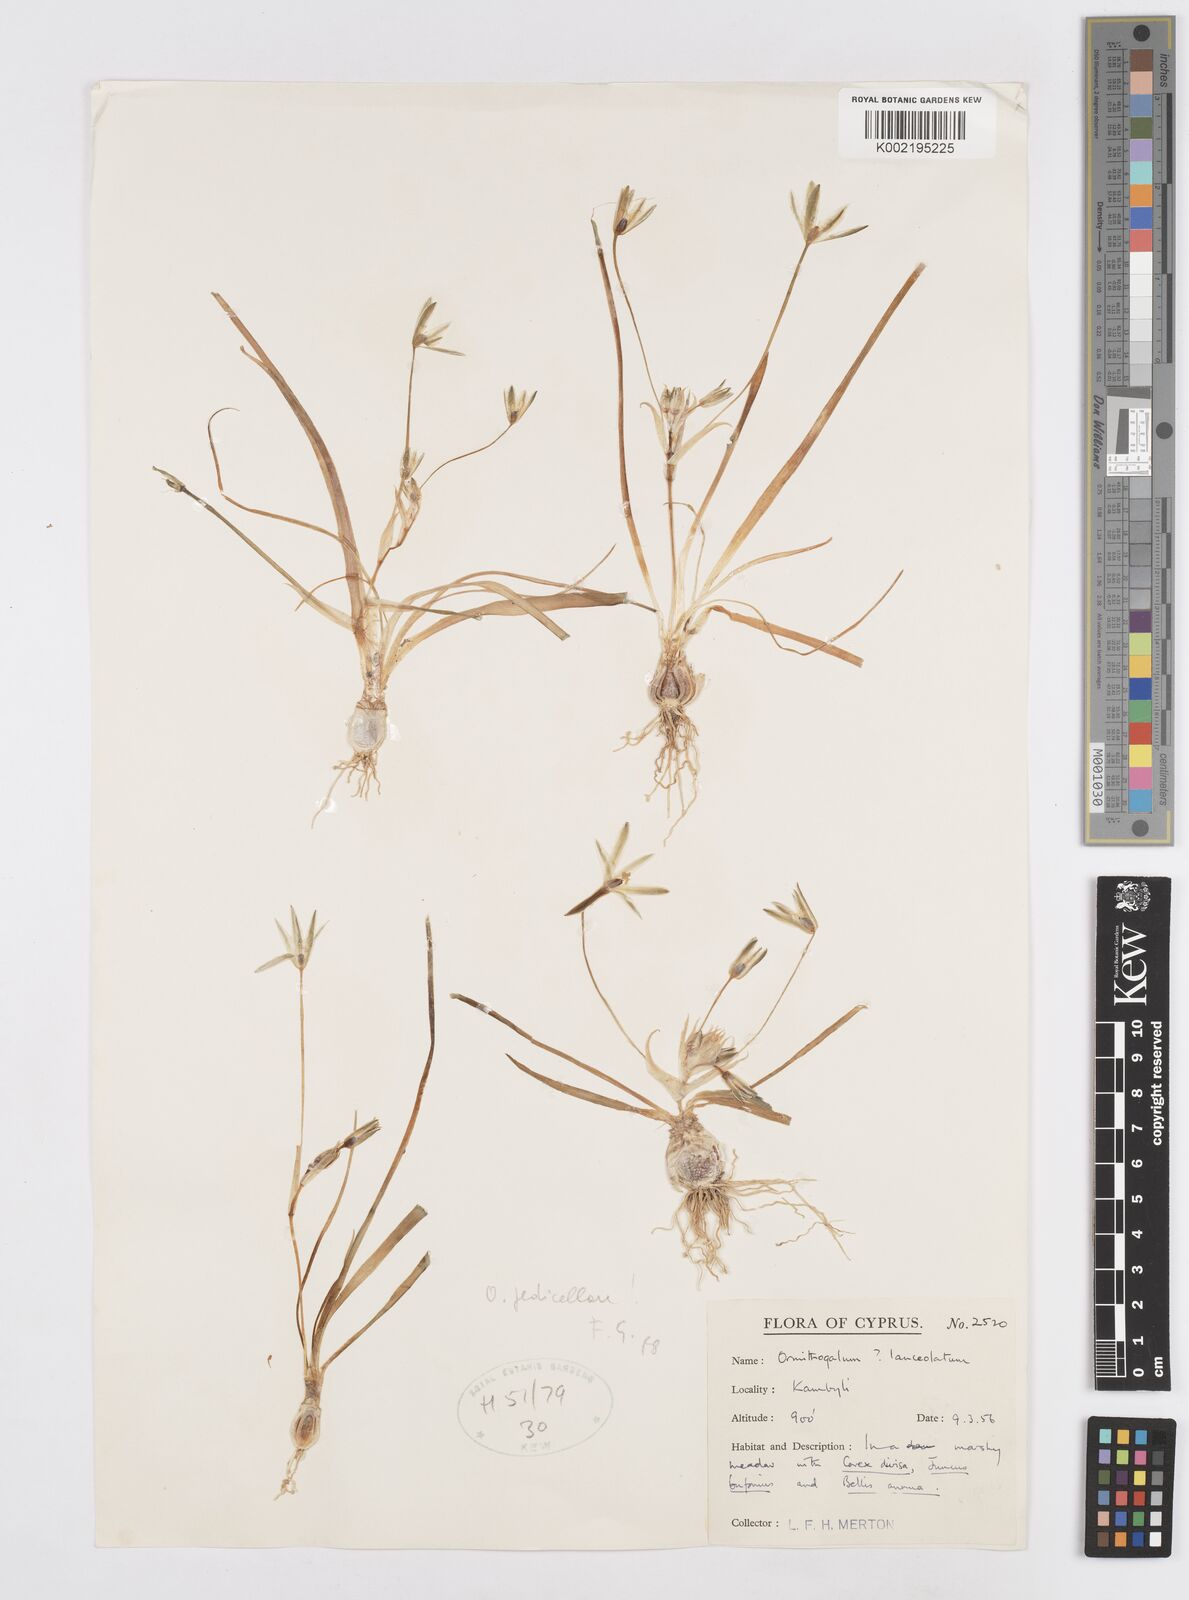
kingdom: Plantae
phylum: Tracheophyta
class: Liliopsida
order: Asparagales
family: Asparagaceae
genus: Ornithogalum
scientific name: Ornithogalum pedicellare
